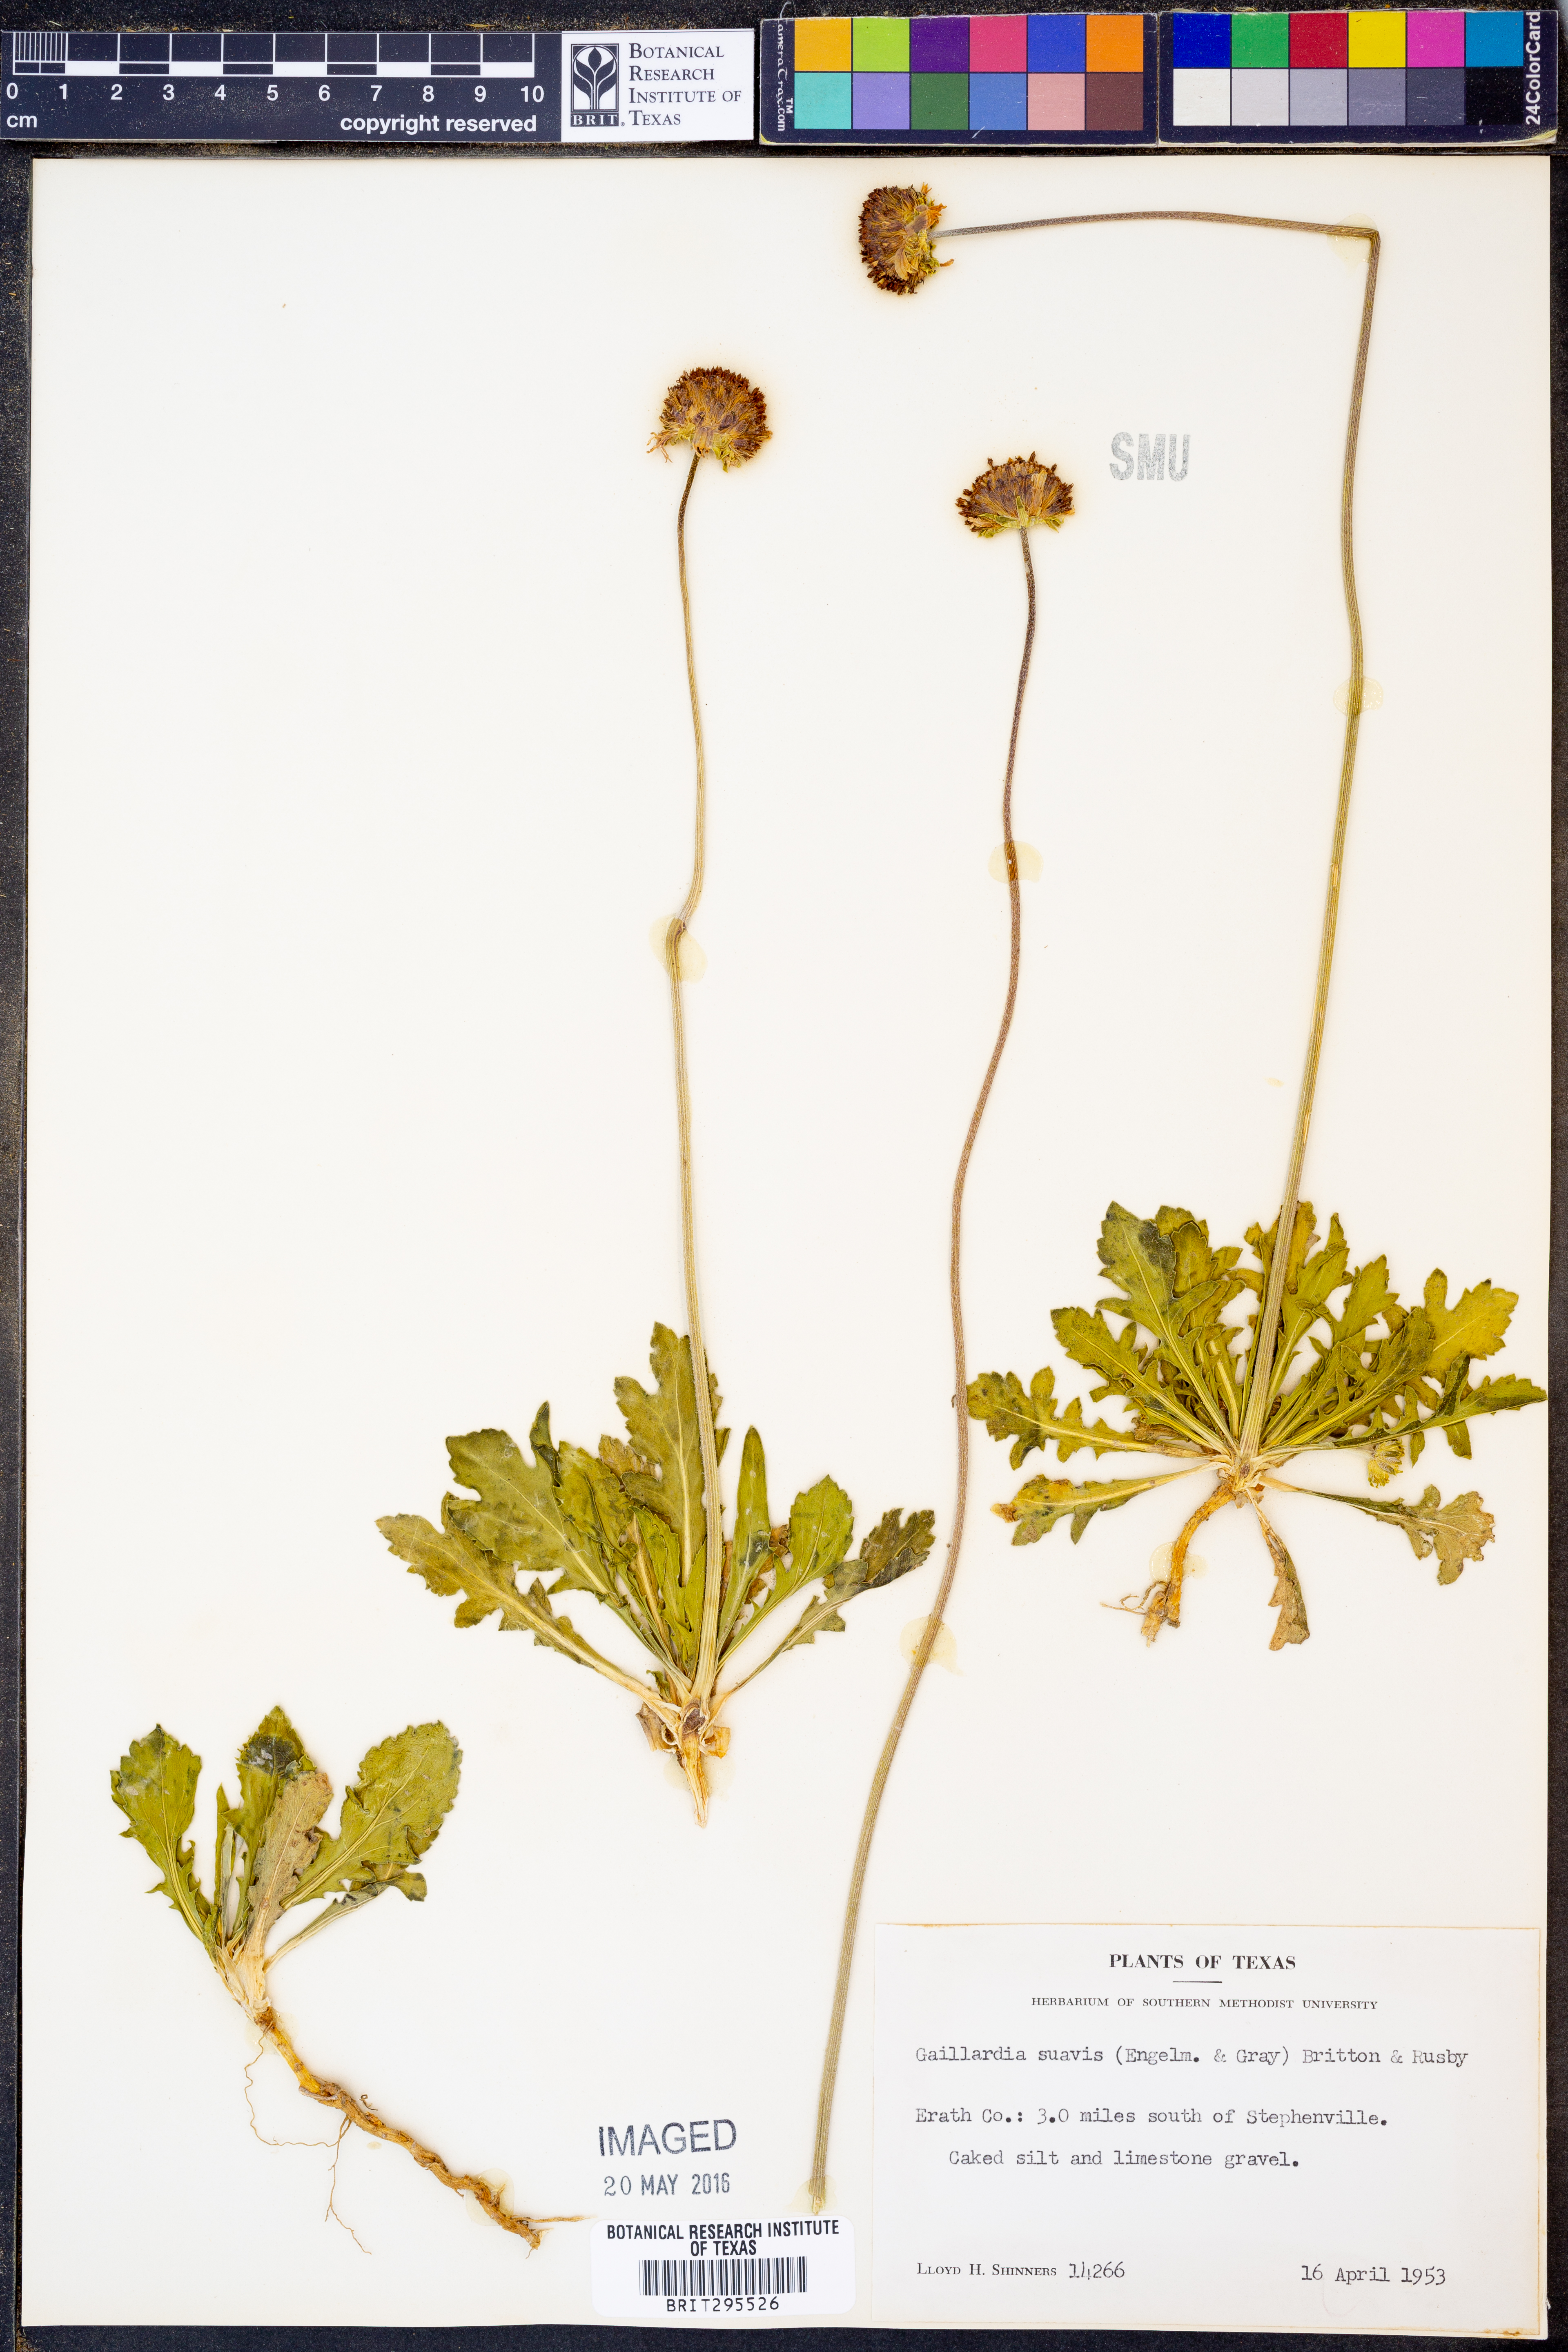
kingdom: Plantae
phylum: Tracheophyta
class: Magnoliopsida
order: Asterales
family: Asteraceae
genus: Gaillardia
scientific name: Gaillardia suavis
